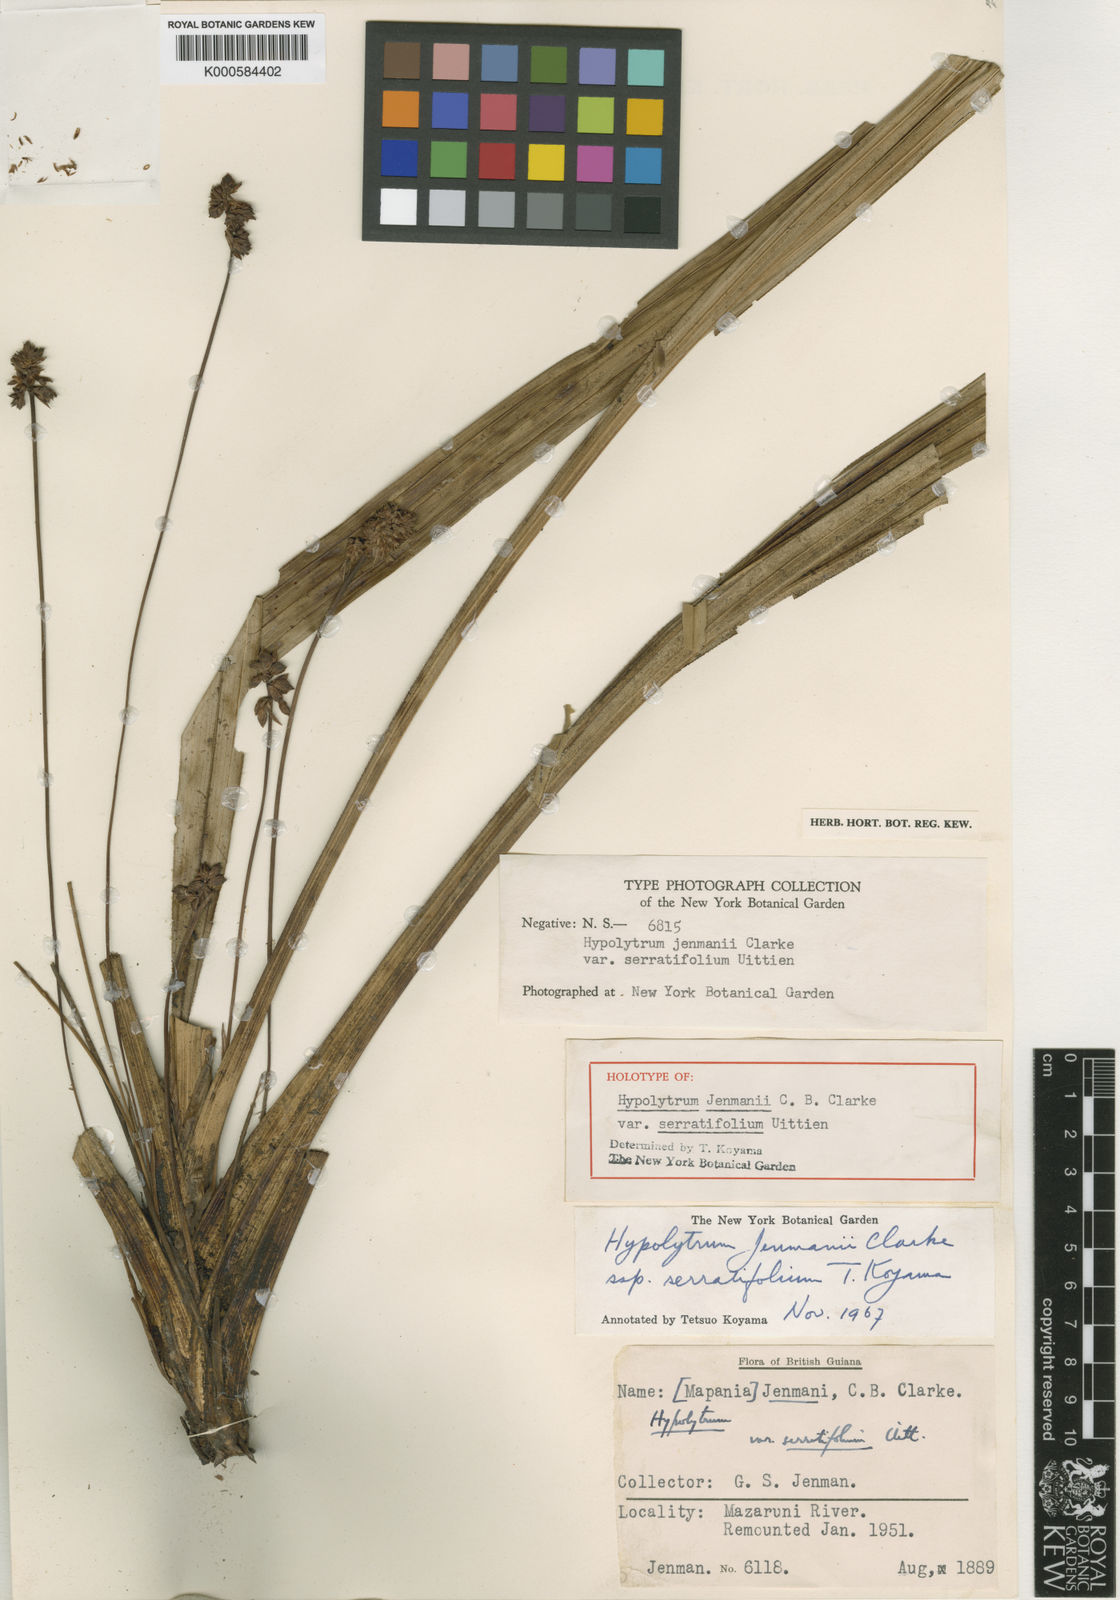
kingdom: Plantae
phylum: Tracheophyta
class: Liliopsida
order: Poales
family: Cyperaceae
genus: Hypolytrum
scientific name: Hypolytrum jenmanii
